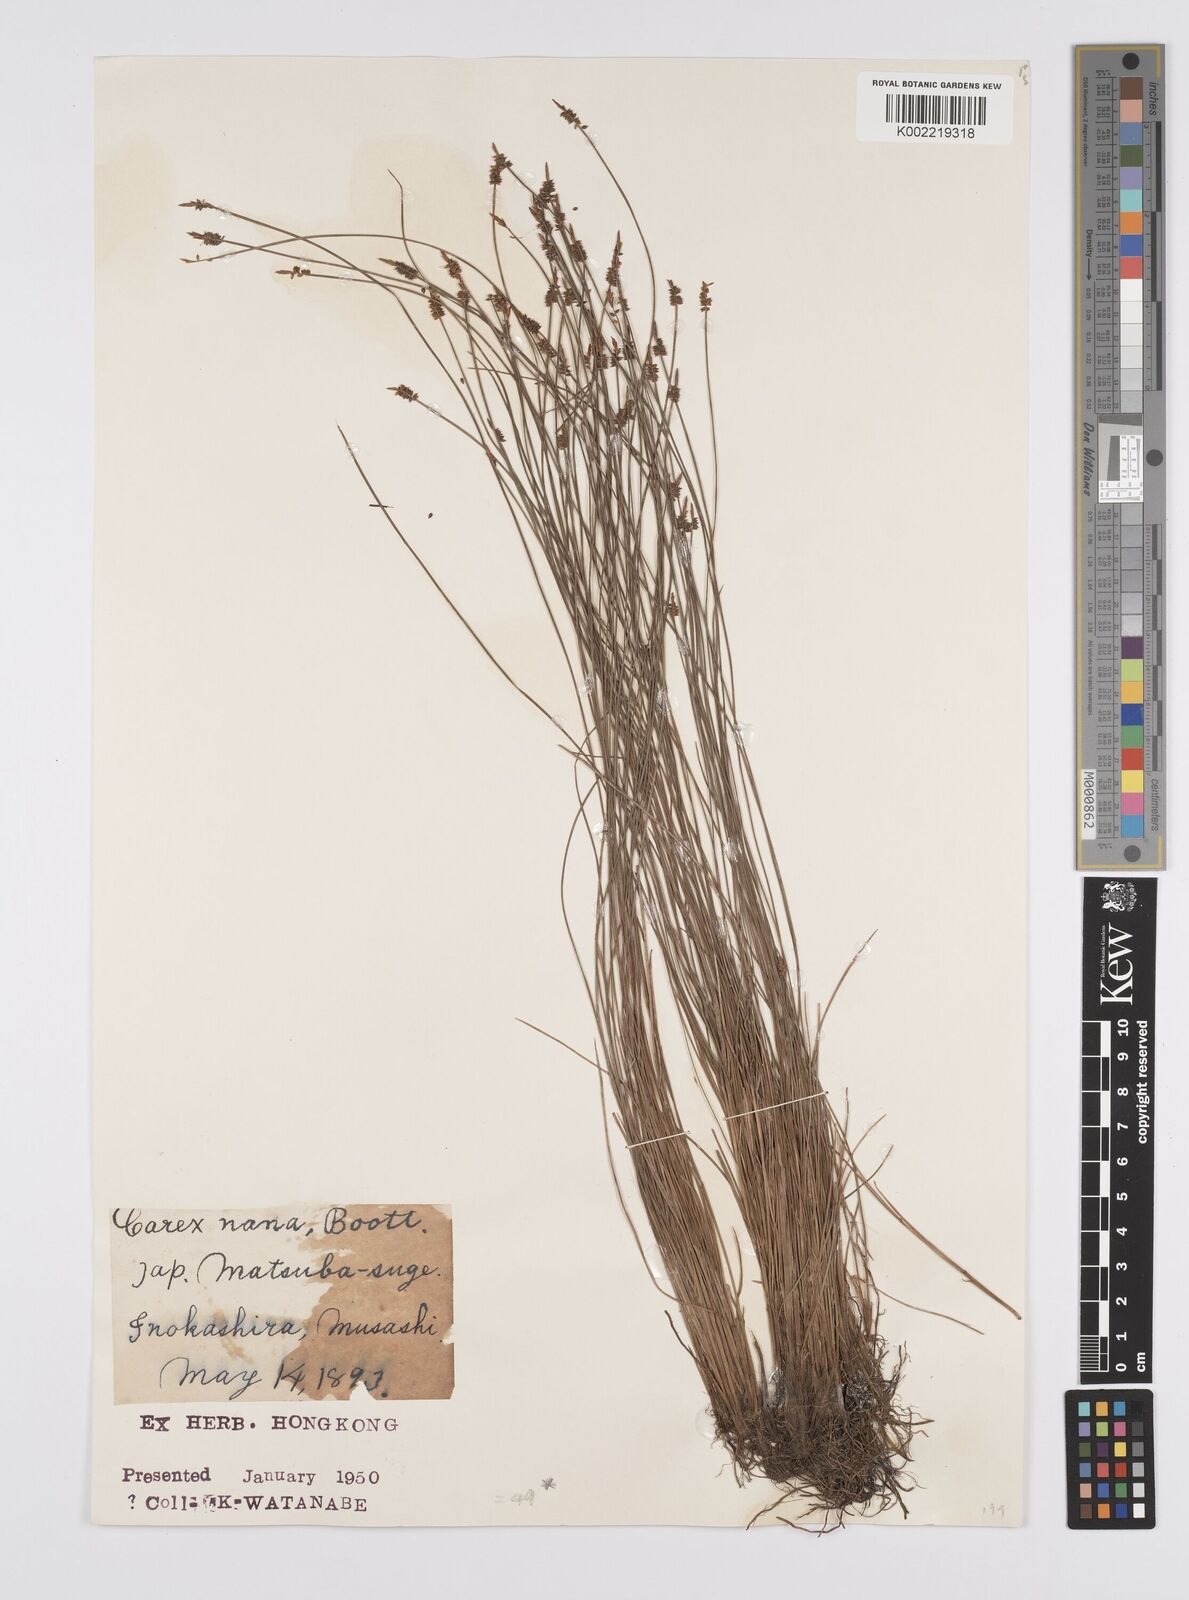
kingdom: Plantae
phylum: Tracheophyta
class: Liliopsida
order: Poales
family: Cyperaceae
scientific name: Cyperaceae
